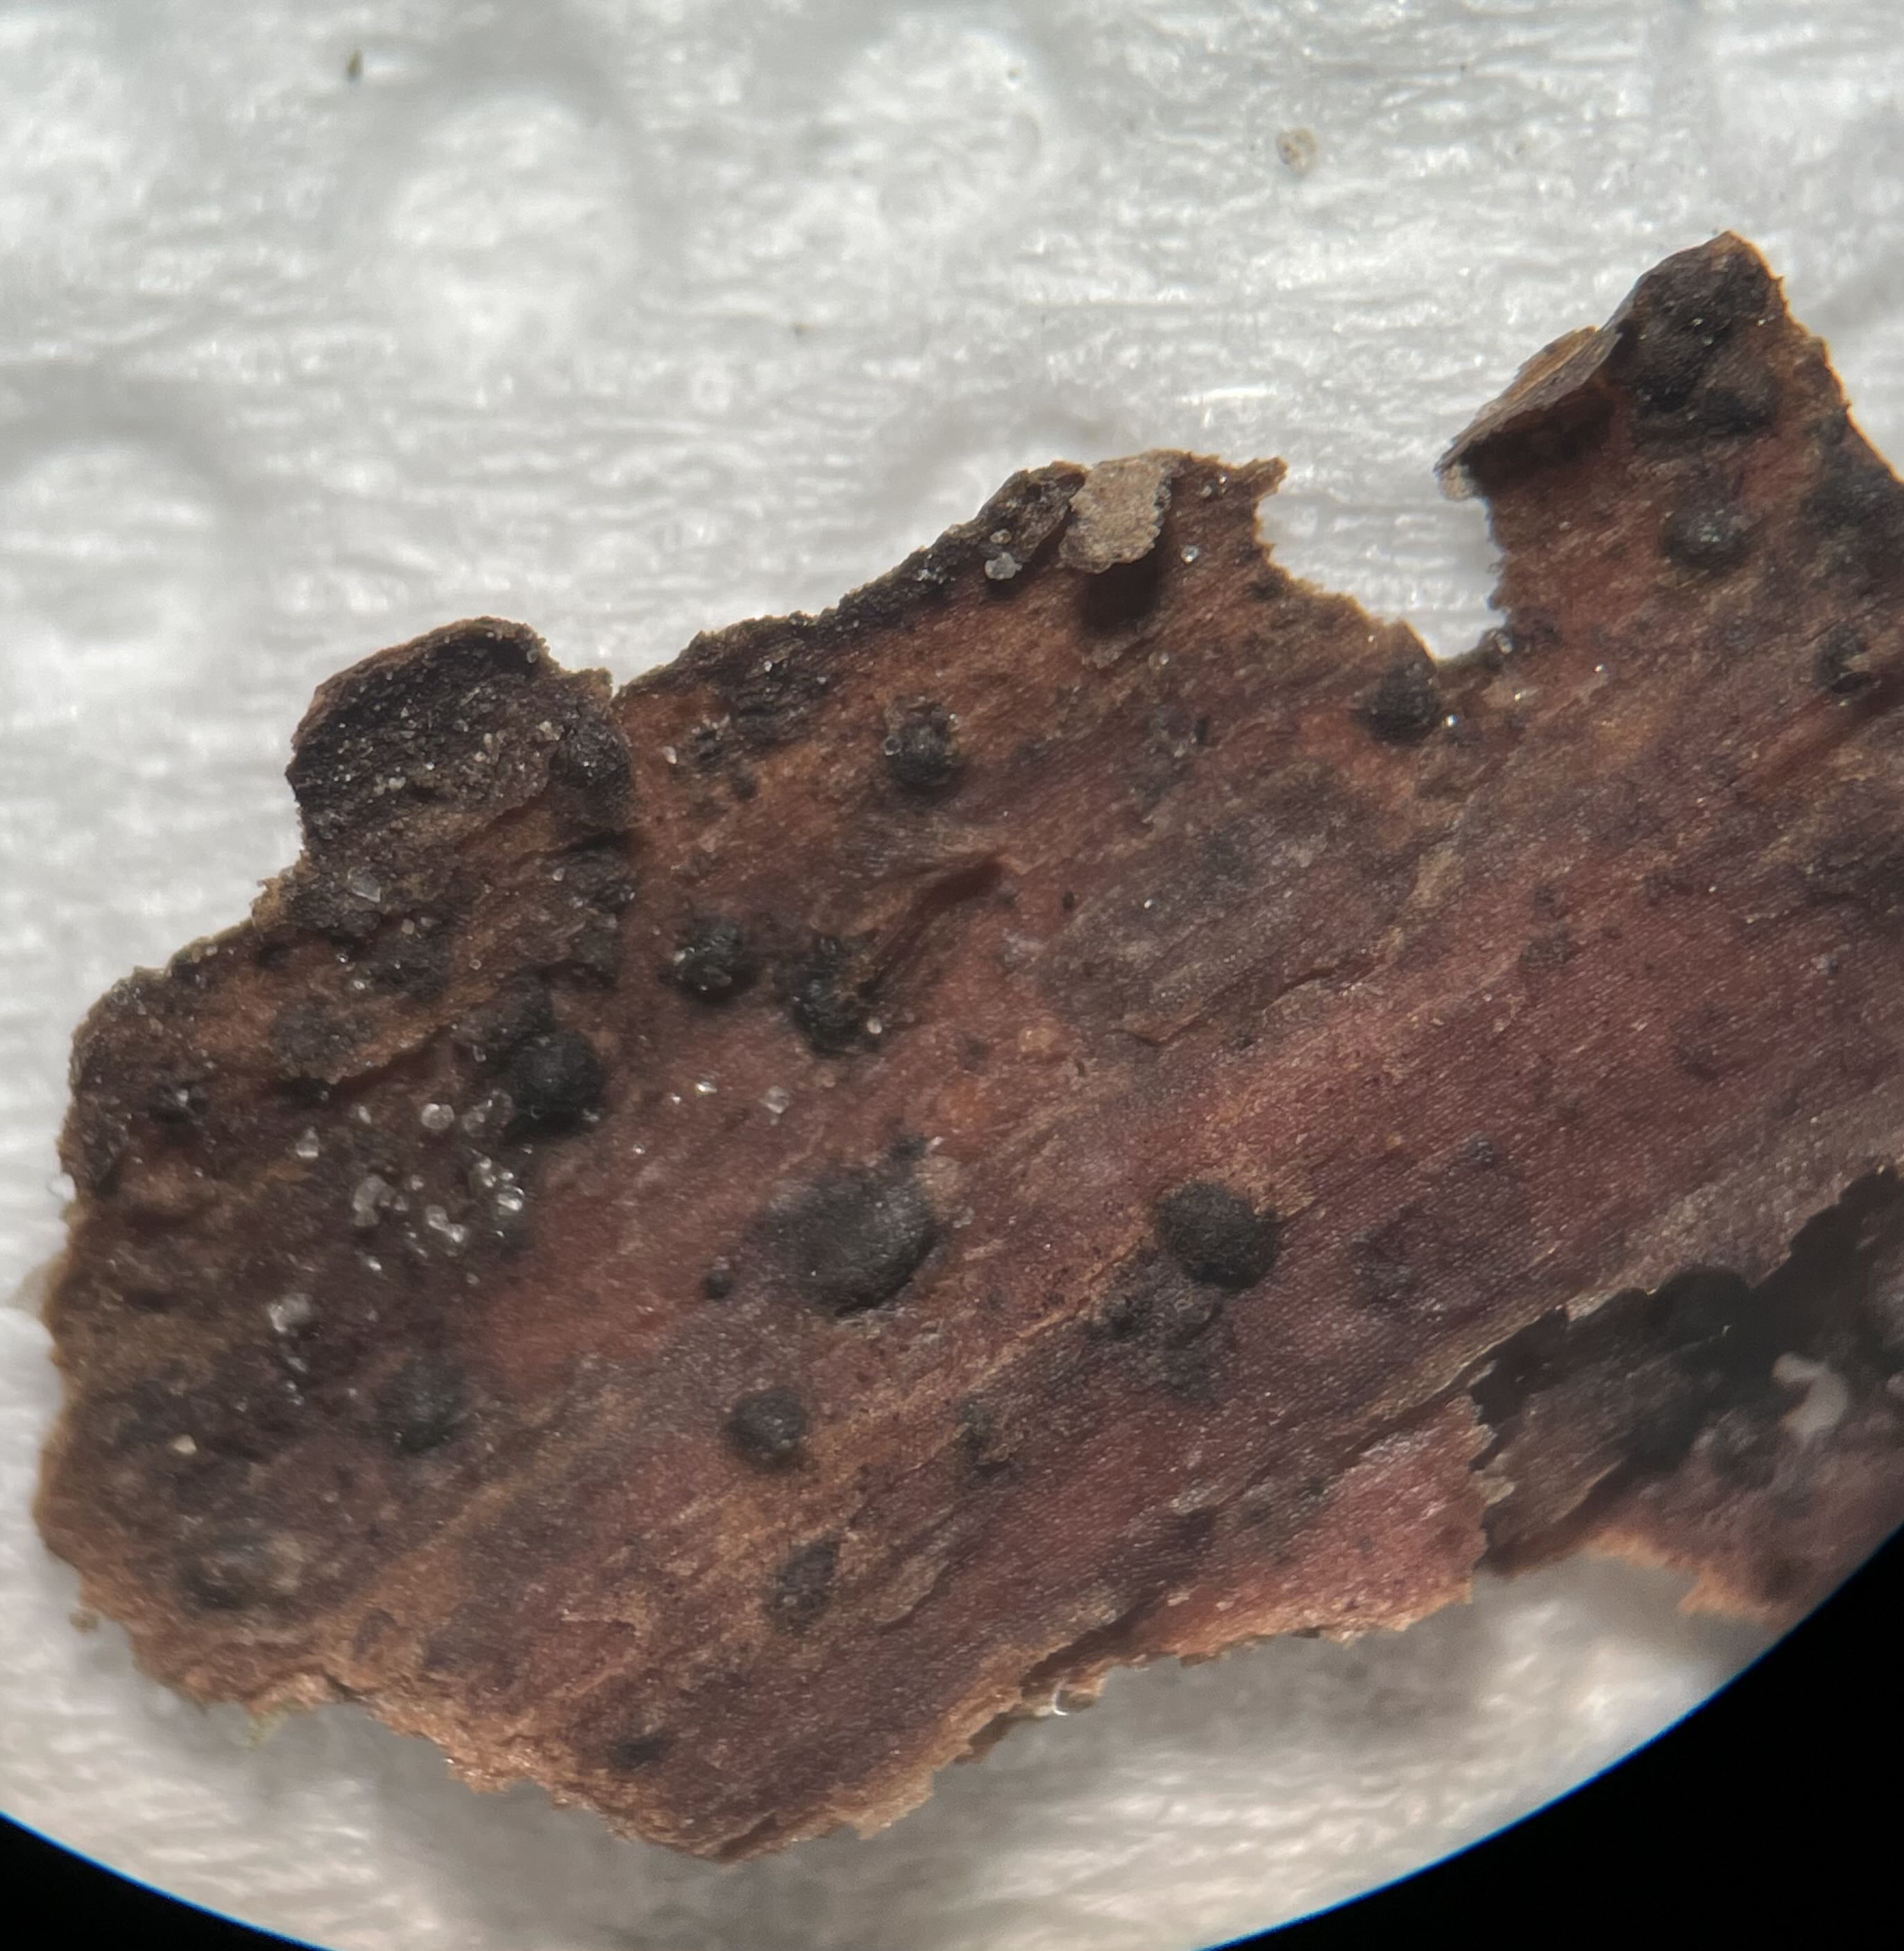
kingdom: Fungi
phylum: Ascomycota
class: Dothideomycetes
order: Pleosporales
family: Coniothyriaceae
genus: Coniothyrium
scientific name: Coniothyrium fuckelii
